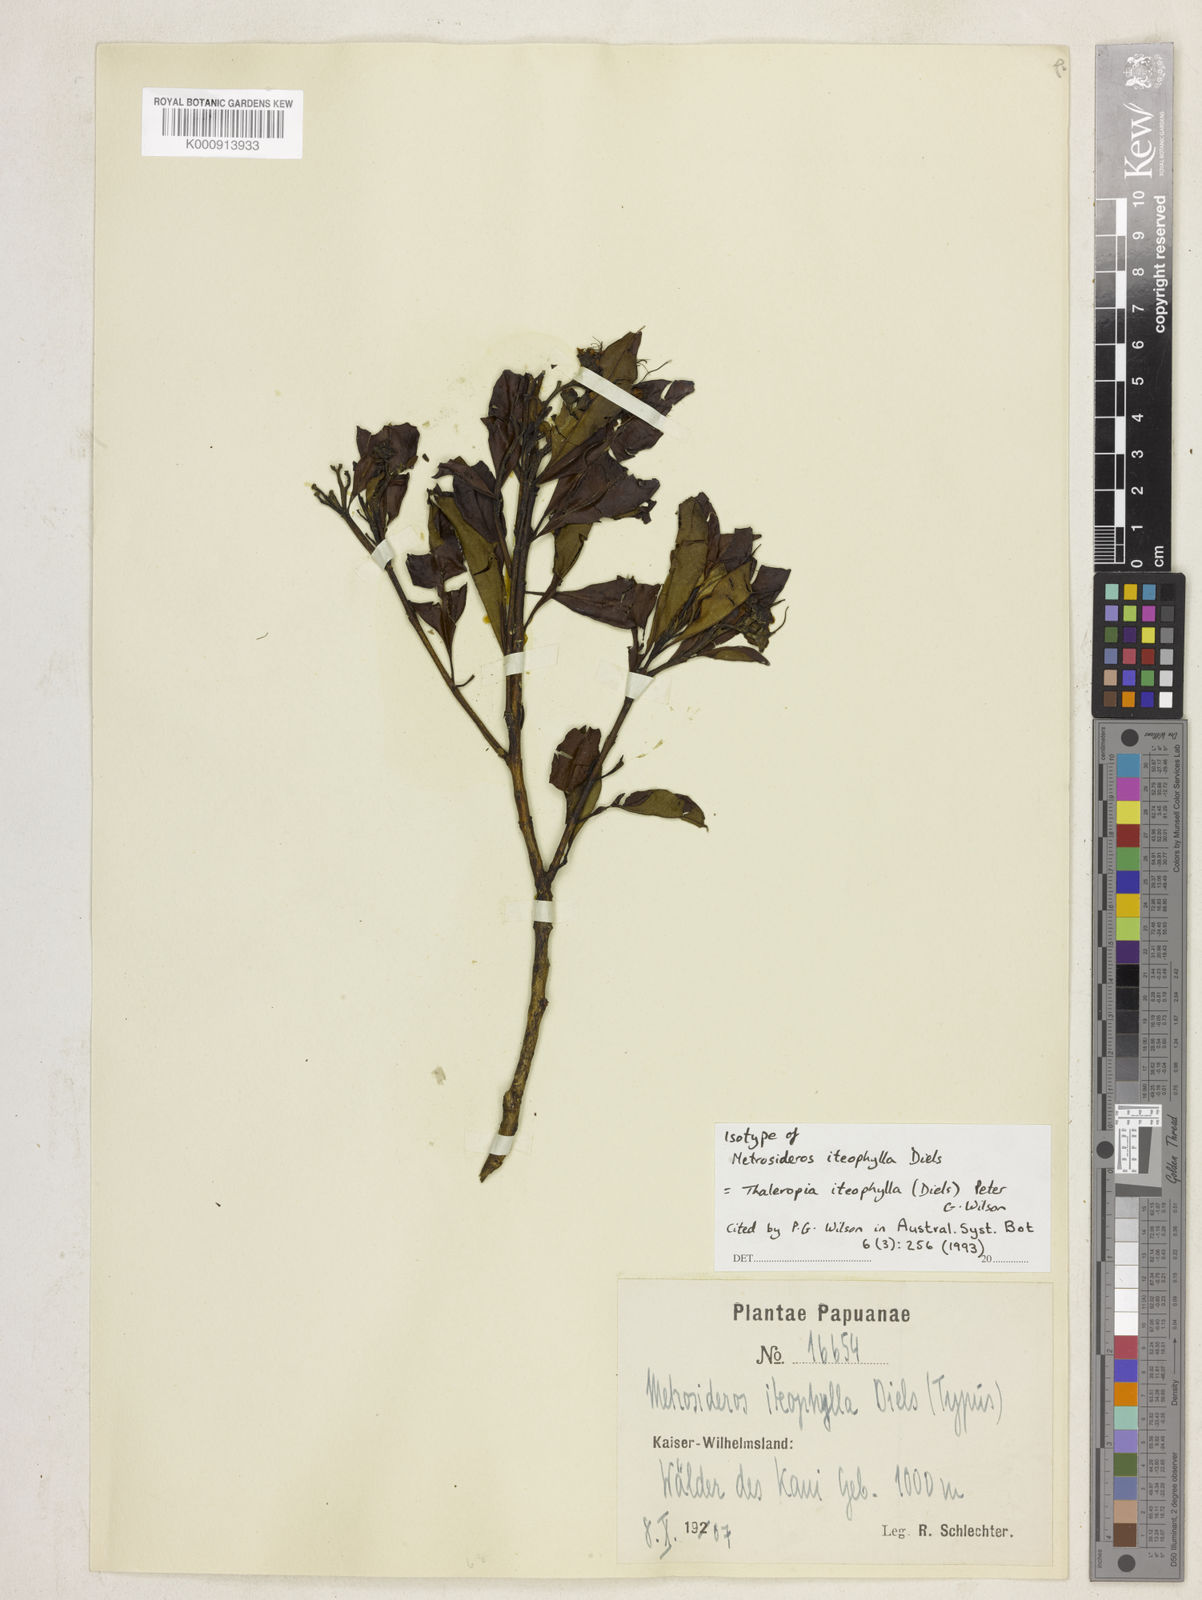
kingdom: Plantae
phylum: Tracheophyta
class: Magnoliopsida
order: Myrtales
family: Myrtaceae
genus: Thaleropia
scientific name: Thaleropia iteophylla
